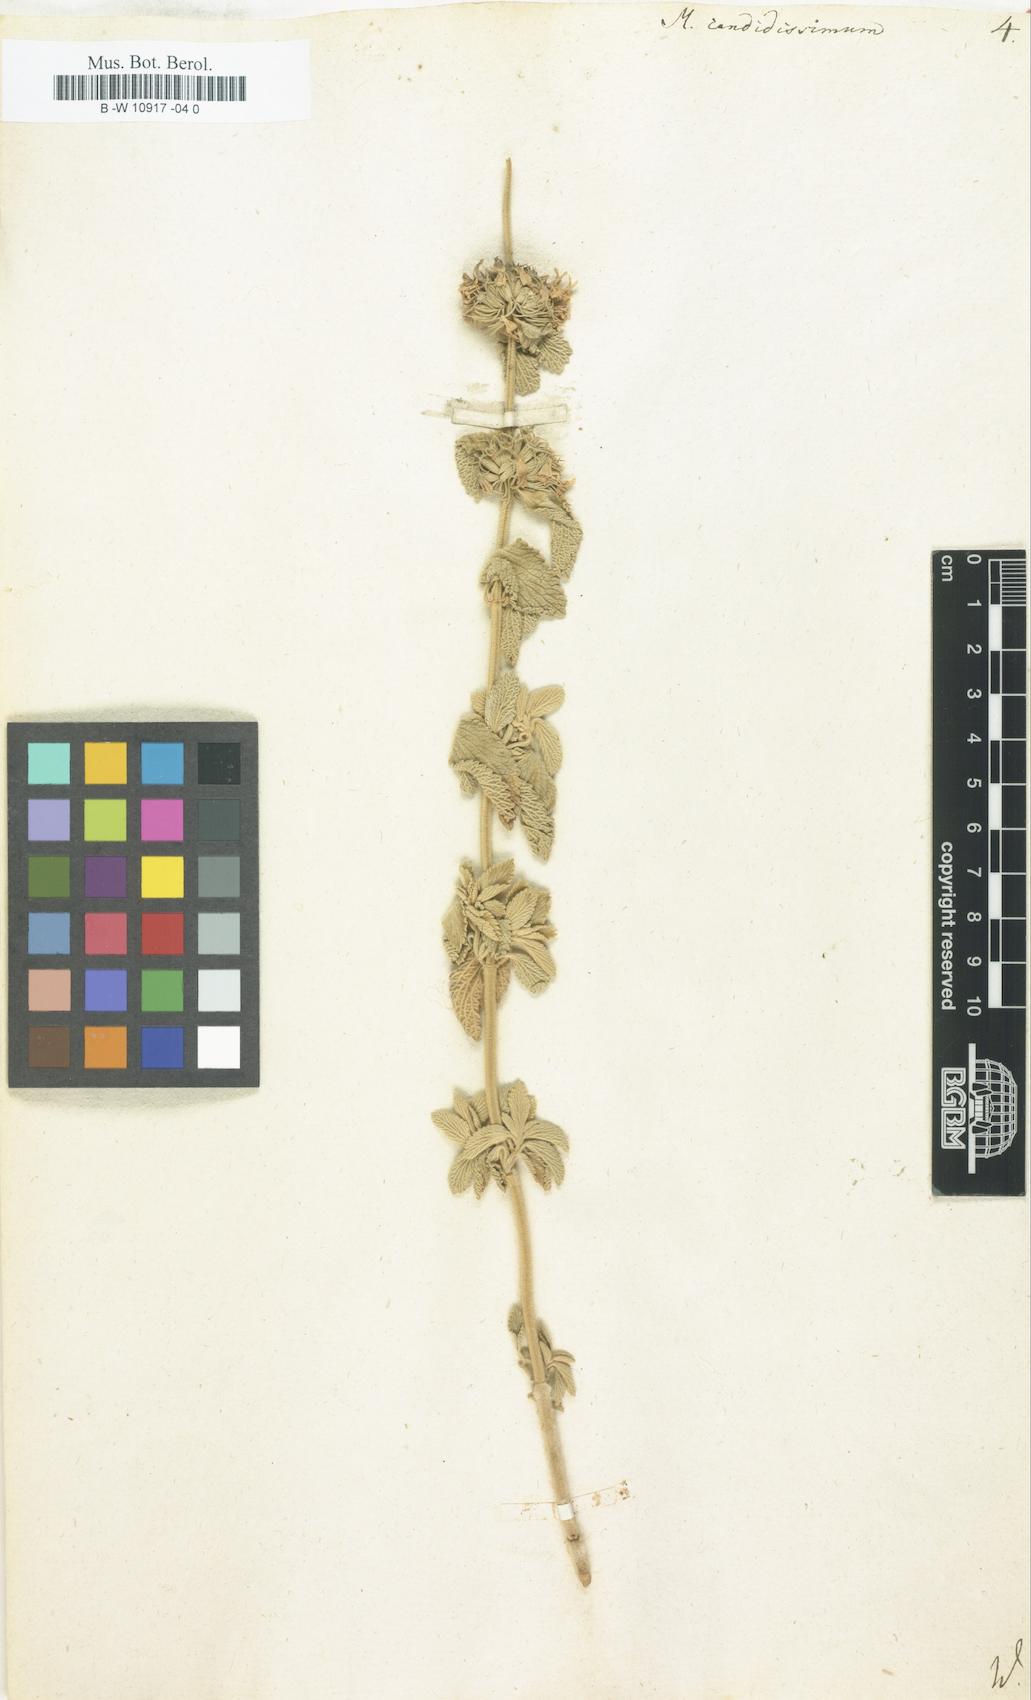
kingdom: Plantae
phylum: Tracheophyta
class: Magnoliopsida
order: Lamiales
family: Lamiaceae
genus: Marrubium
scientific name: Marrubium peregrinum
